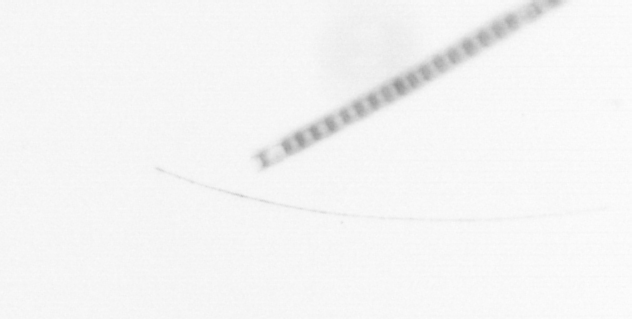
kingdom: Chromista
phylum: Ochrophyta
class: Bacillariophyceae
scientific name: Bacillariophyceae
